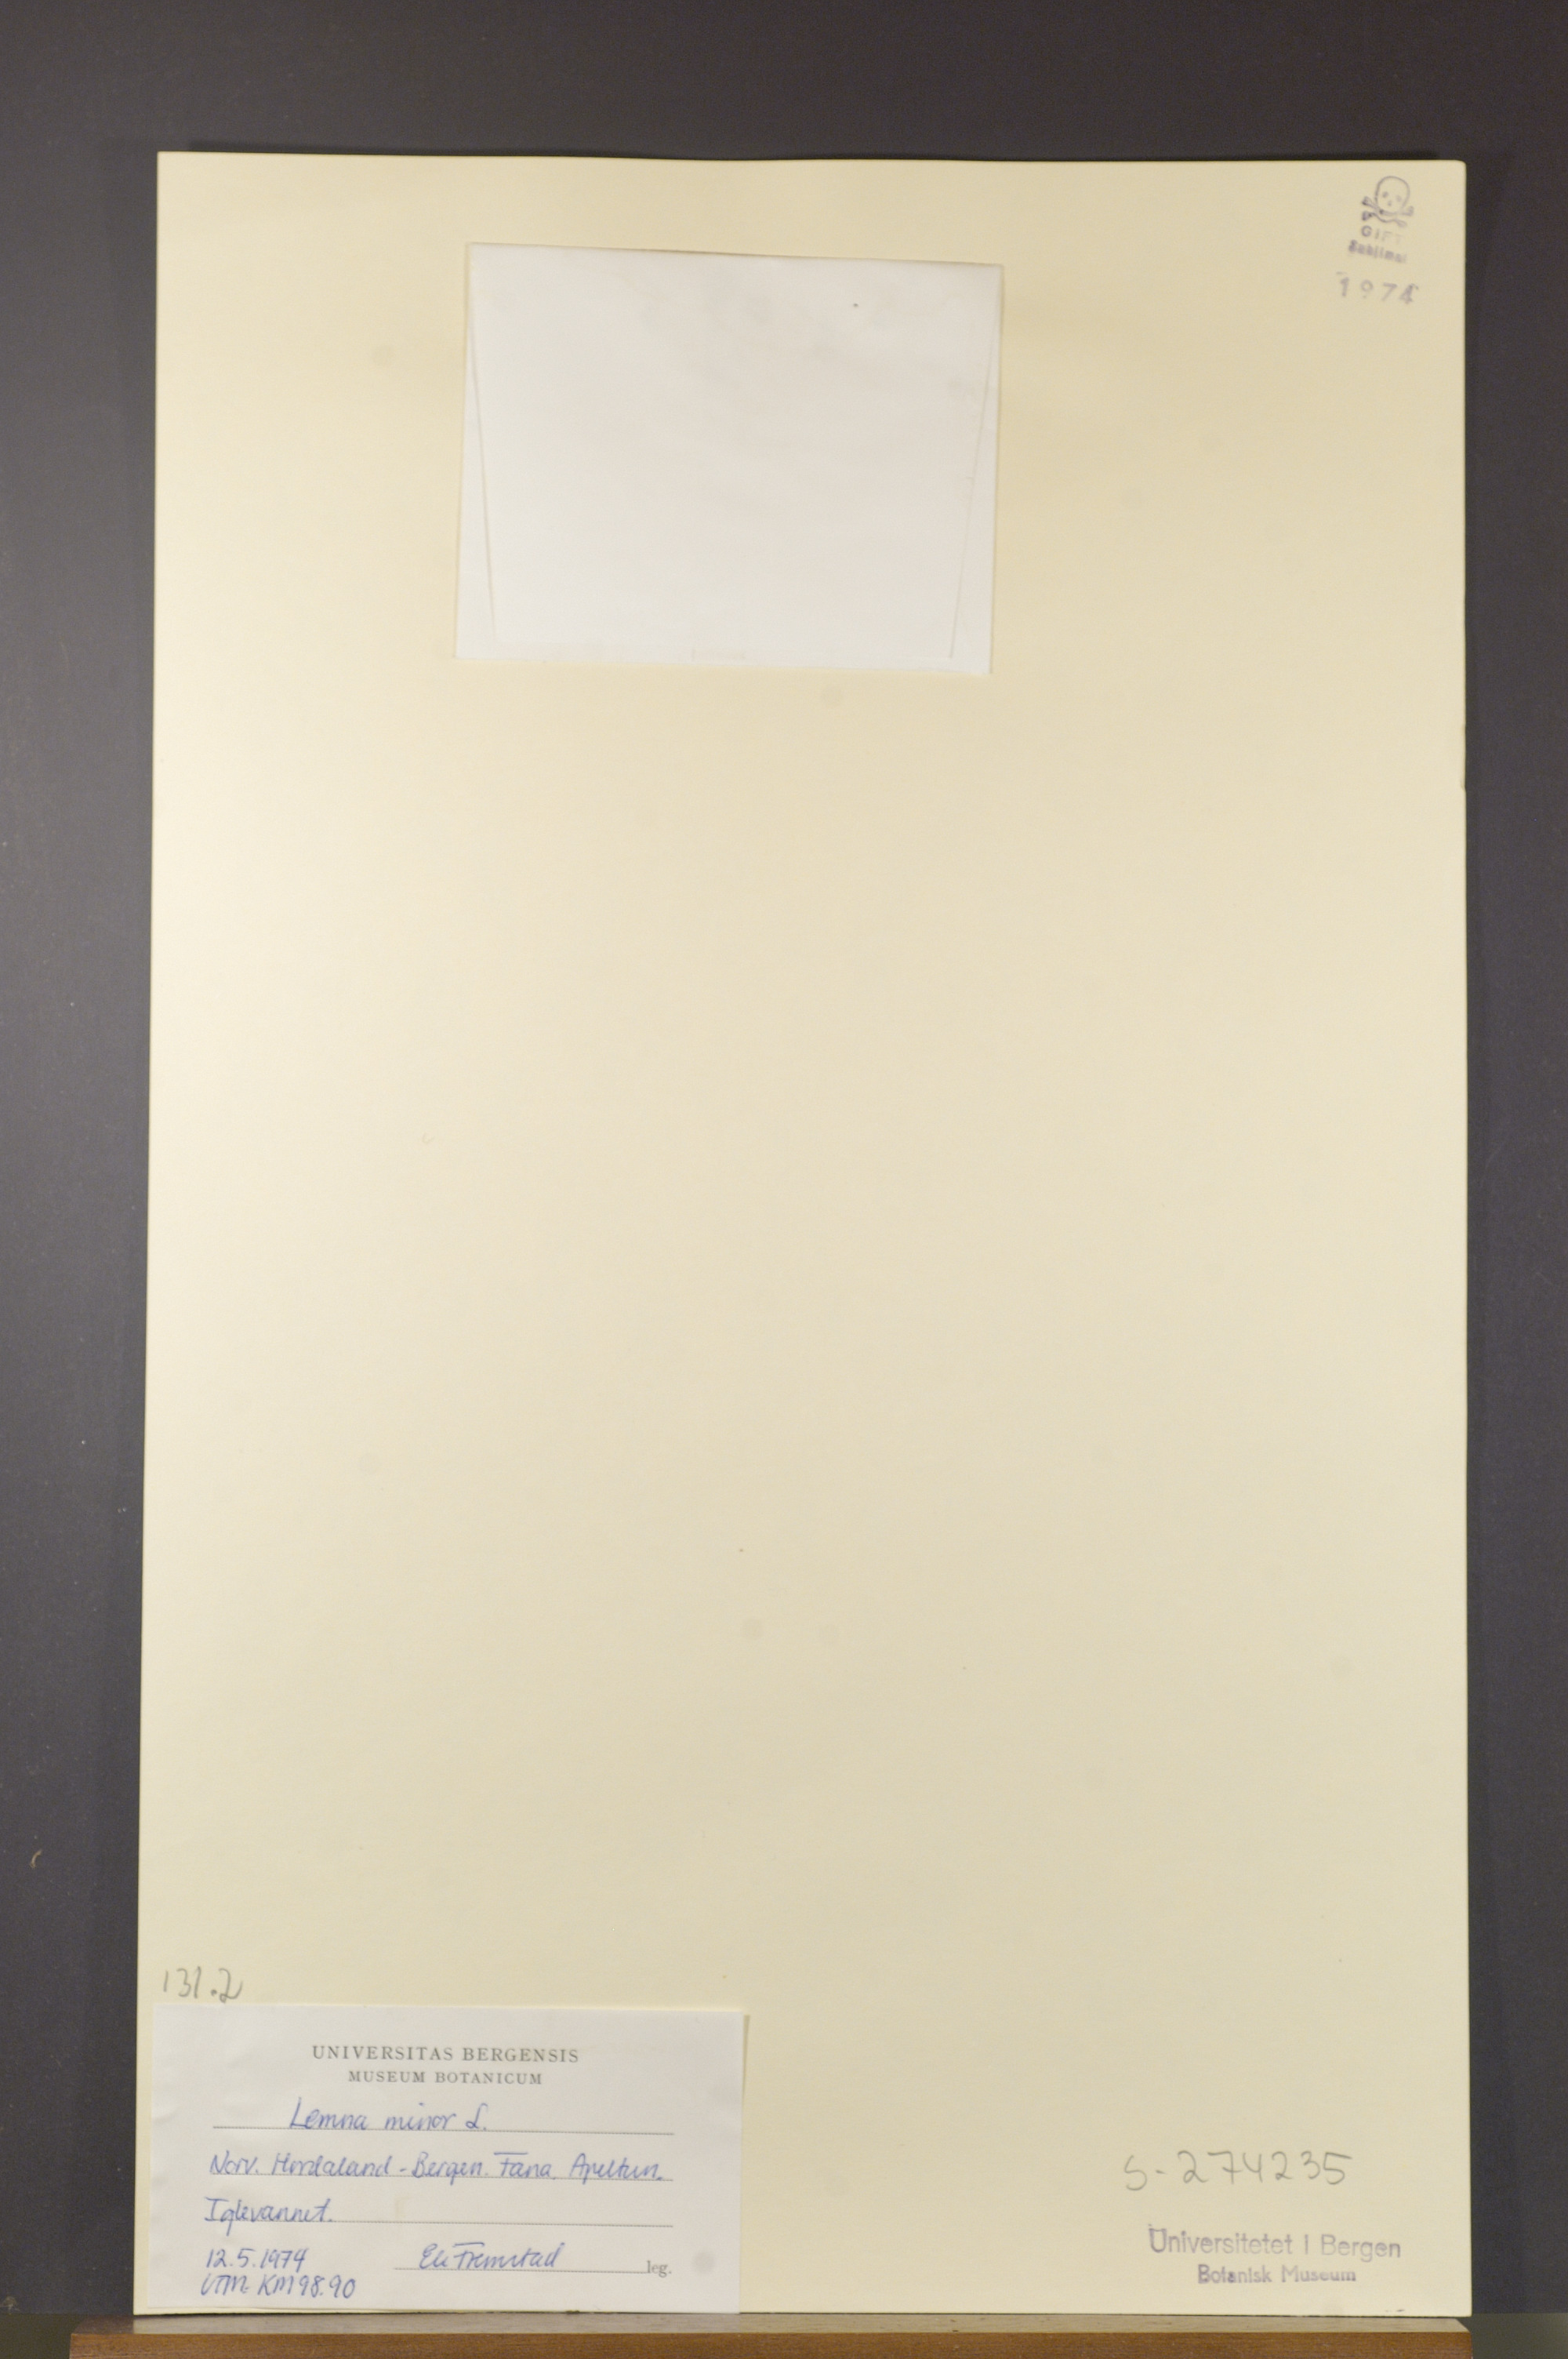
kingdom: Plantae
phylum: Tracheophyta
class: Liliopsida
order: Alismatales
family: Araceae
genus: Lemna
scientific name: Lemna minor
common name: Common duckweed
